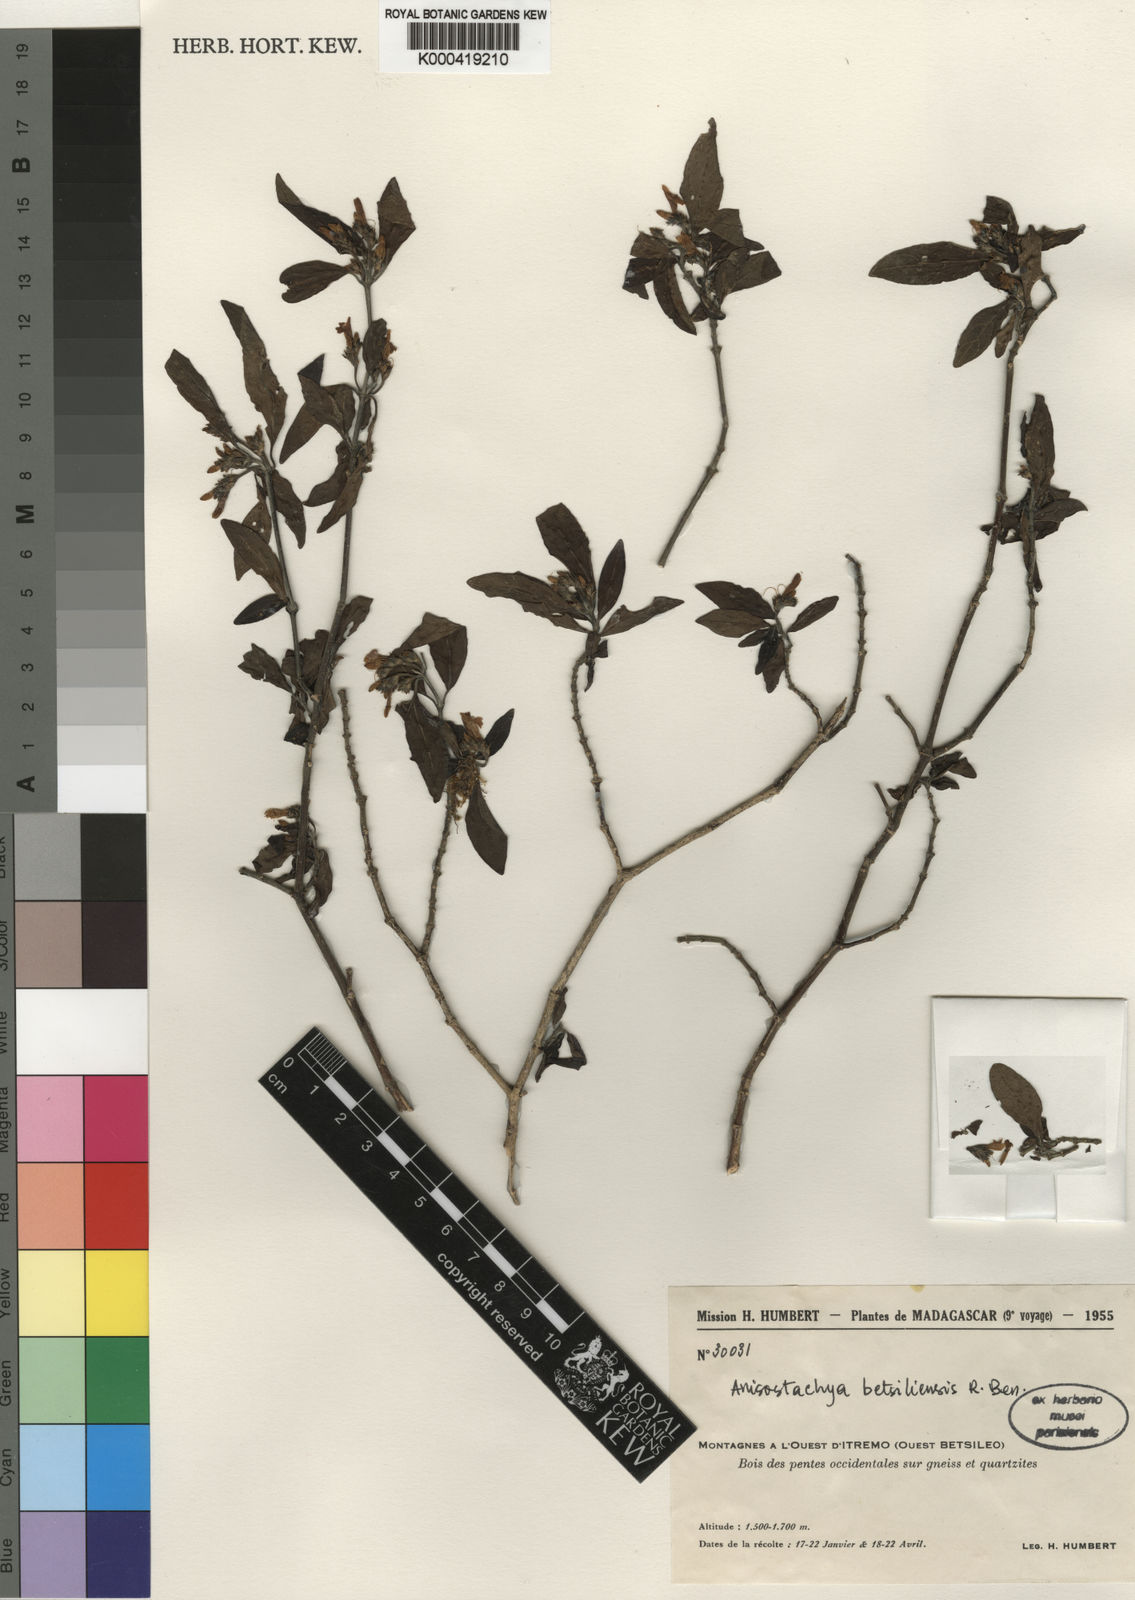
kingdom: Plantae
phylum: Tracheophyta
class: Magnoliopsida
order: Lamiales
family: Acanthaceae
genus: Justicia
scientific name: Justicia
